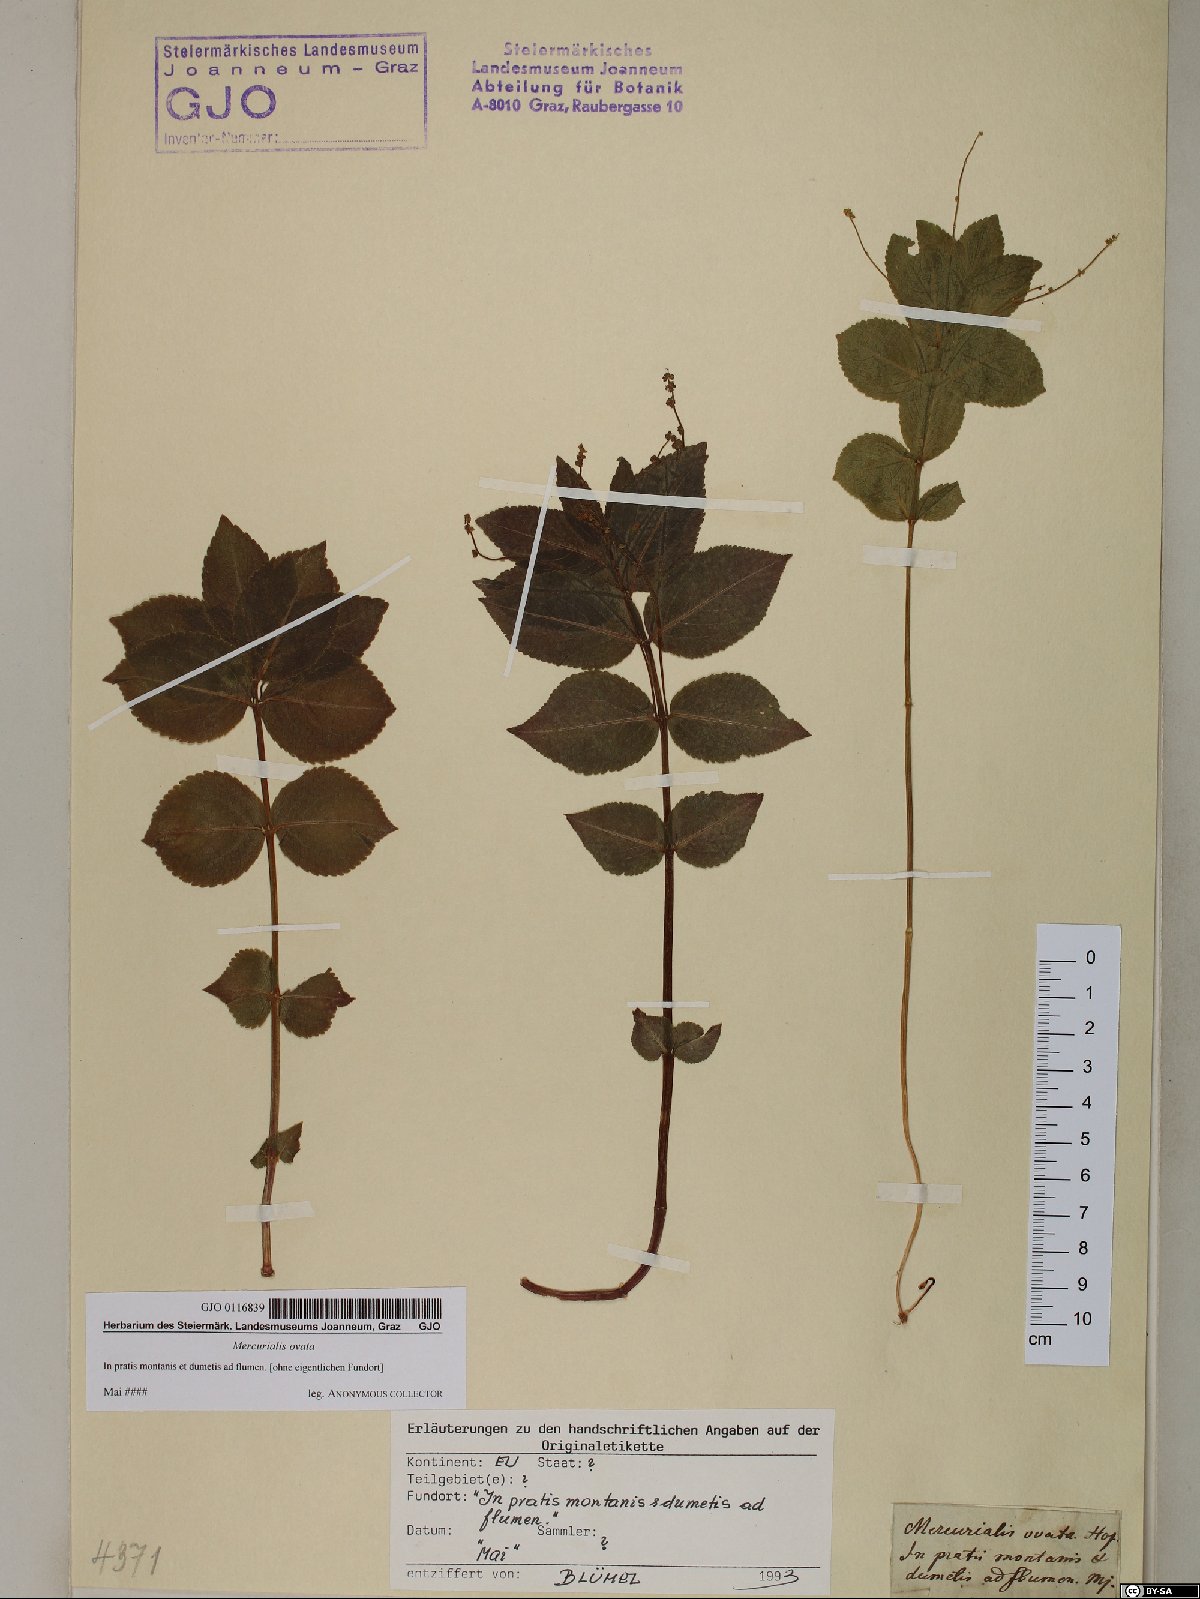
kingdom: Plantae
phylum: Tracheophyta
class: Magnoliopsida
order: Malpighiales
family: Euphorbiaceae
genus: Mercurialis
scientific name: Mercurialis ovata
